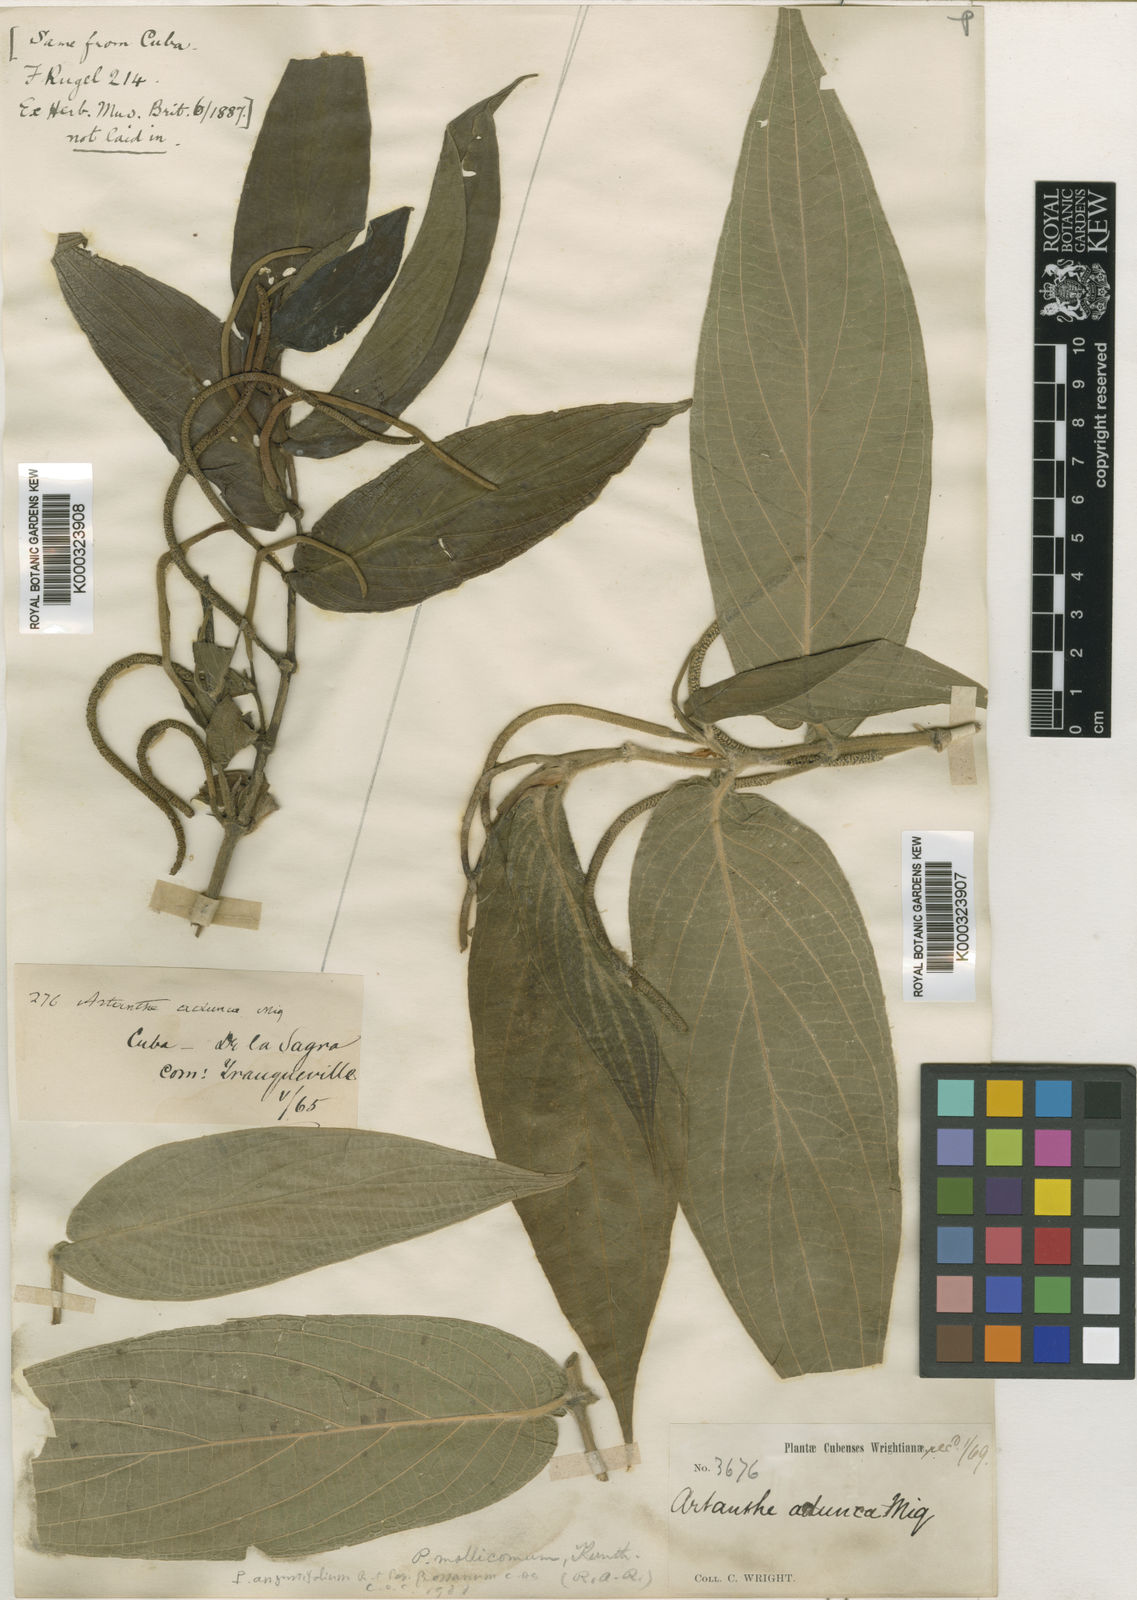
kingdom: Plantae
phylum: Tracheophyta
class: Magnoliopsida
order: Piperales
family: Piperaceae
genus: Piper
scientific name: Piper aduncum
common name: Spiked pepper
